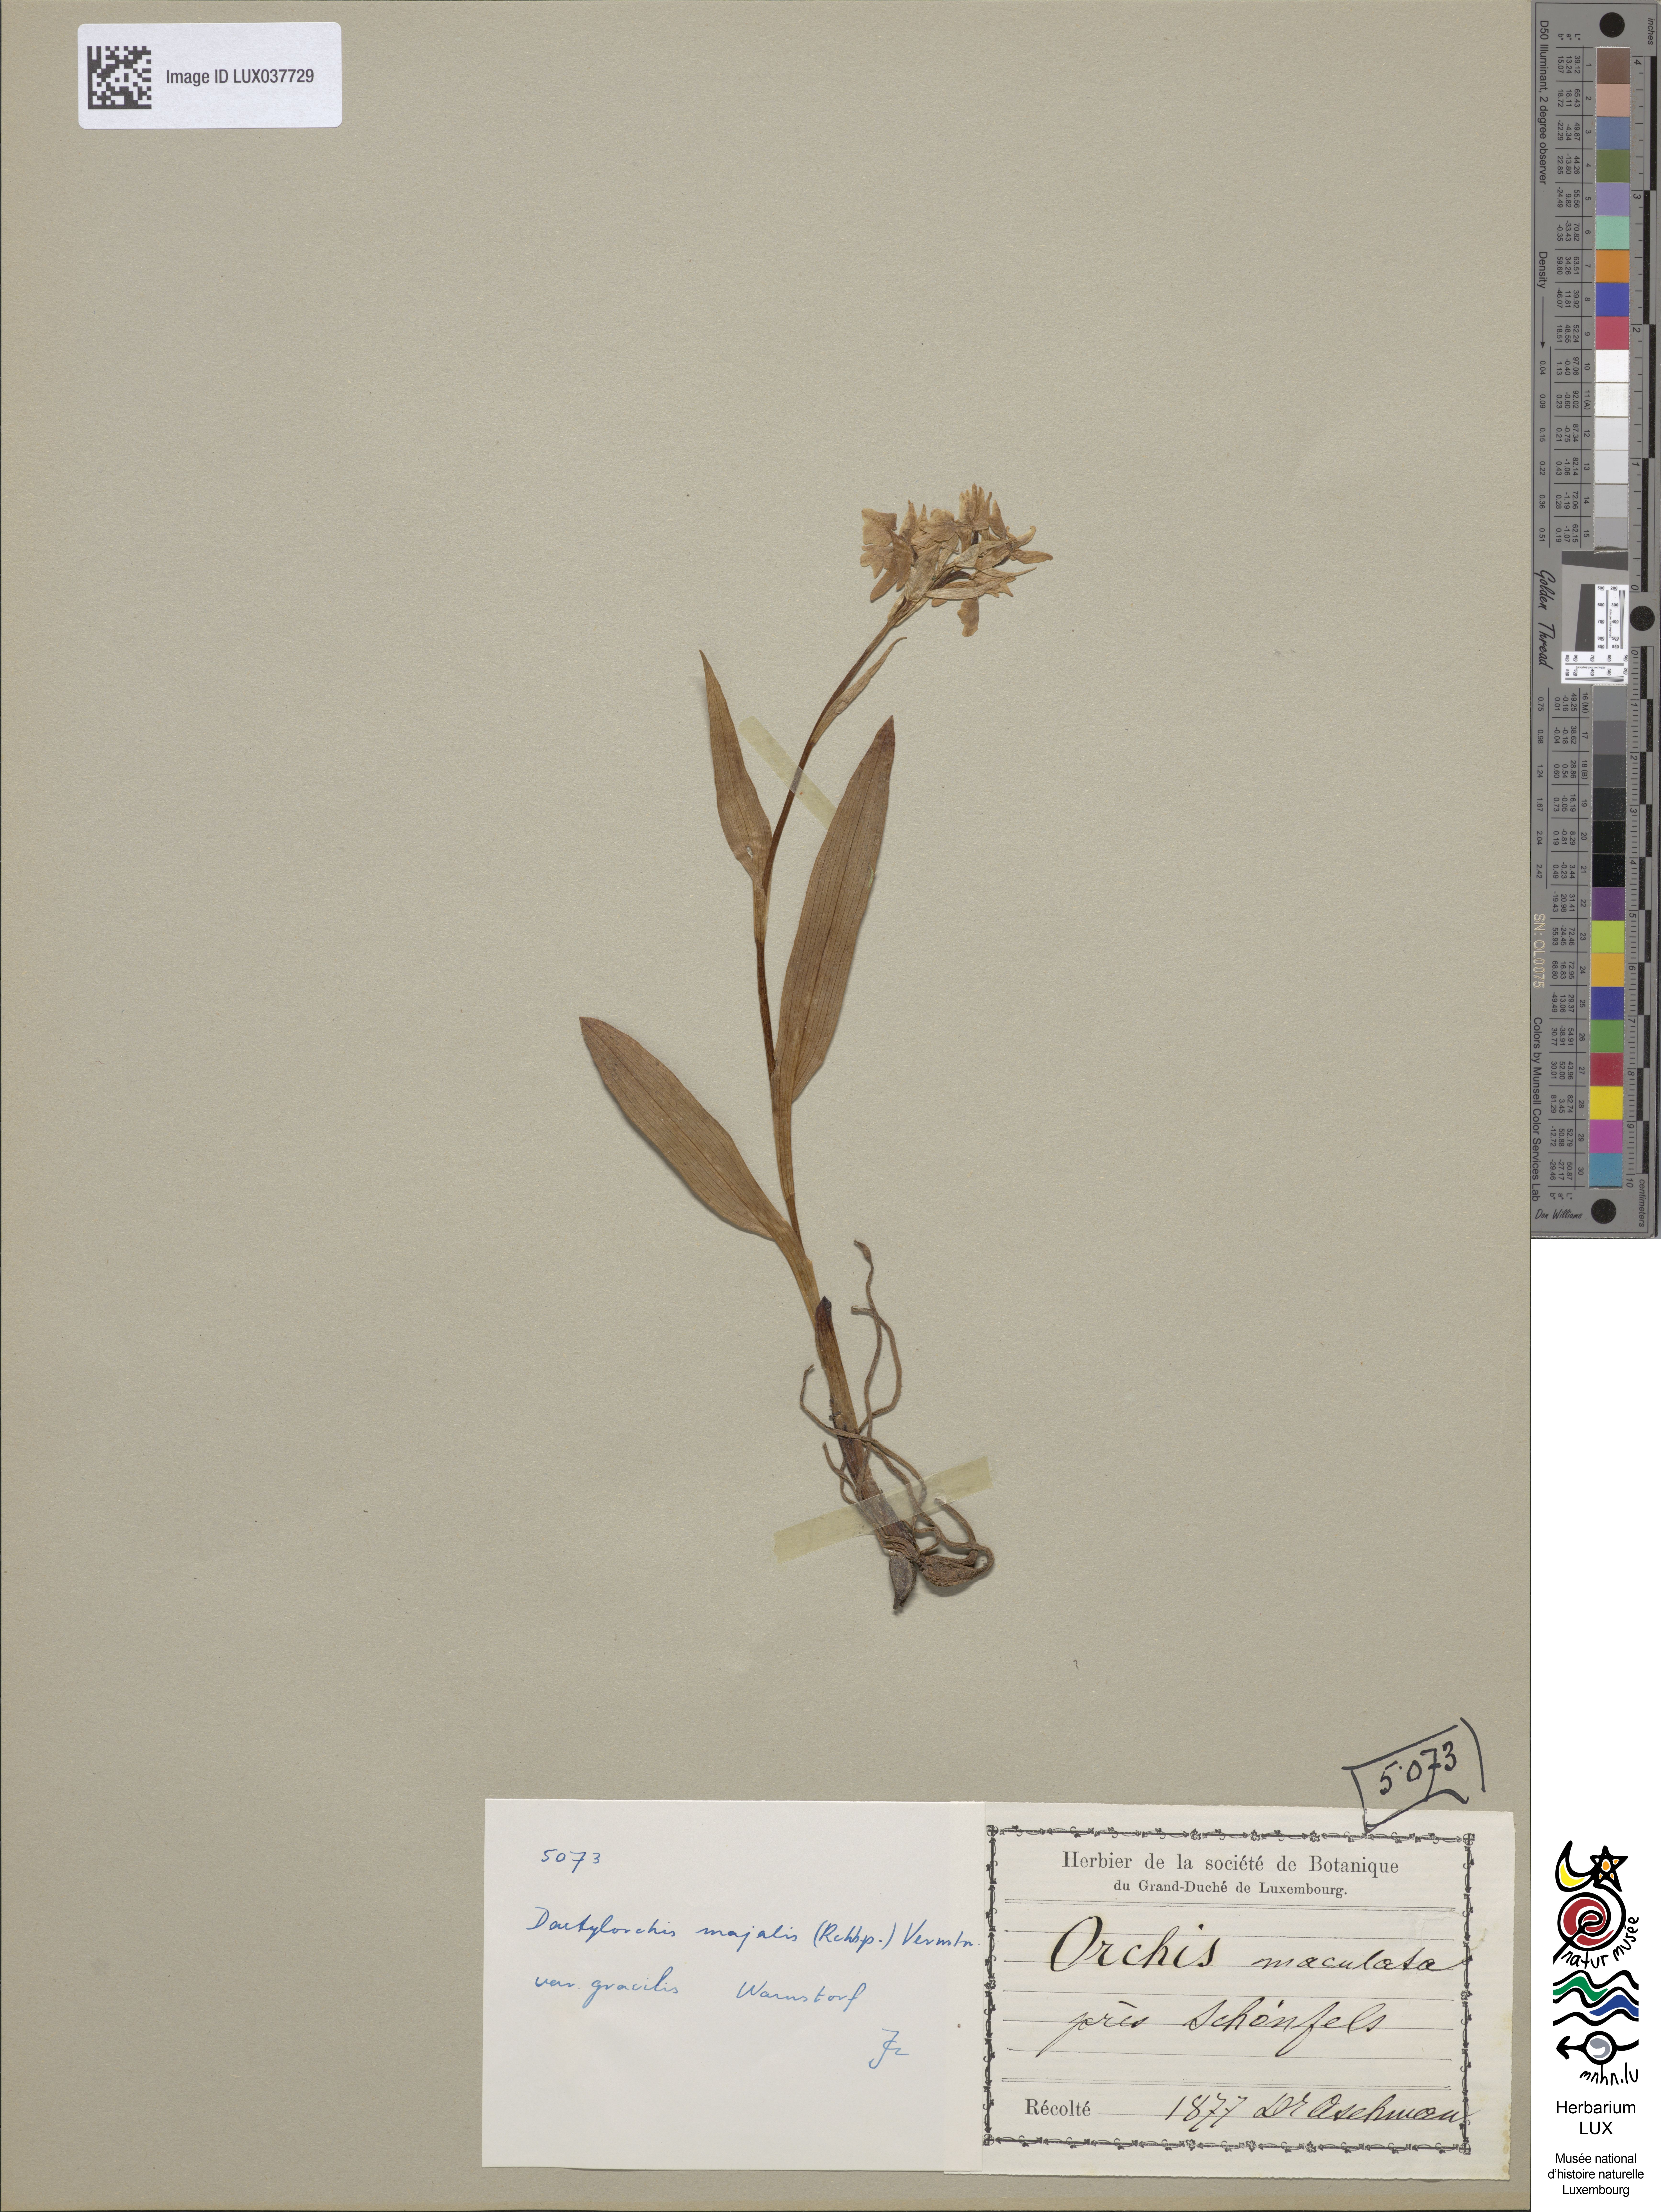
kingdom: Plantae
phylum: Tracheophyta
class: Liliopsida
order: Asparagales
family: Orchidaceae
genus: Dactylorhiza
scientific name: Dactylorhiza majalis
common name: Marsh orchid
